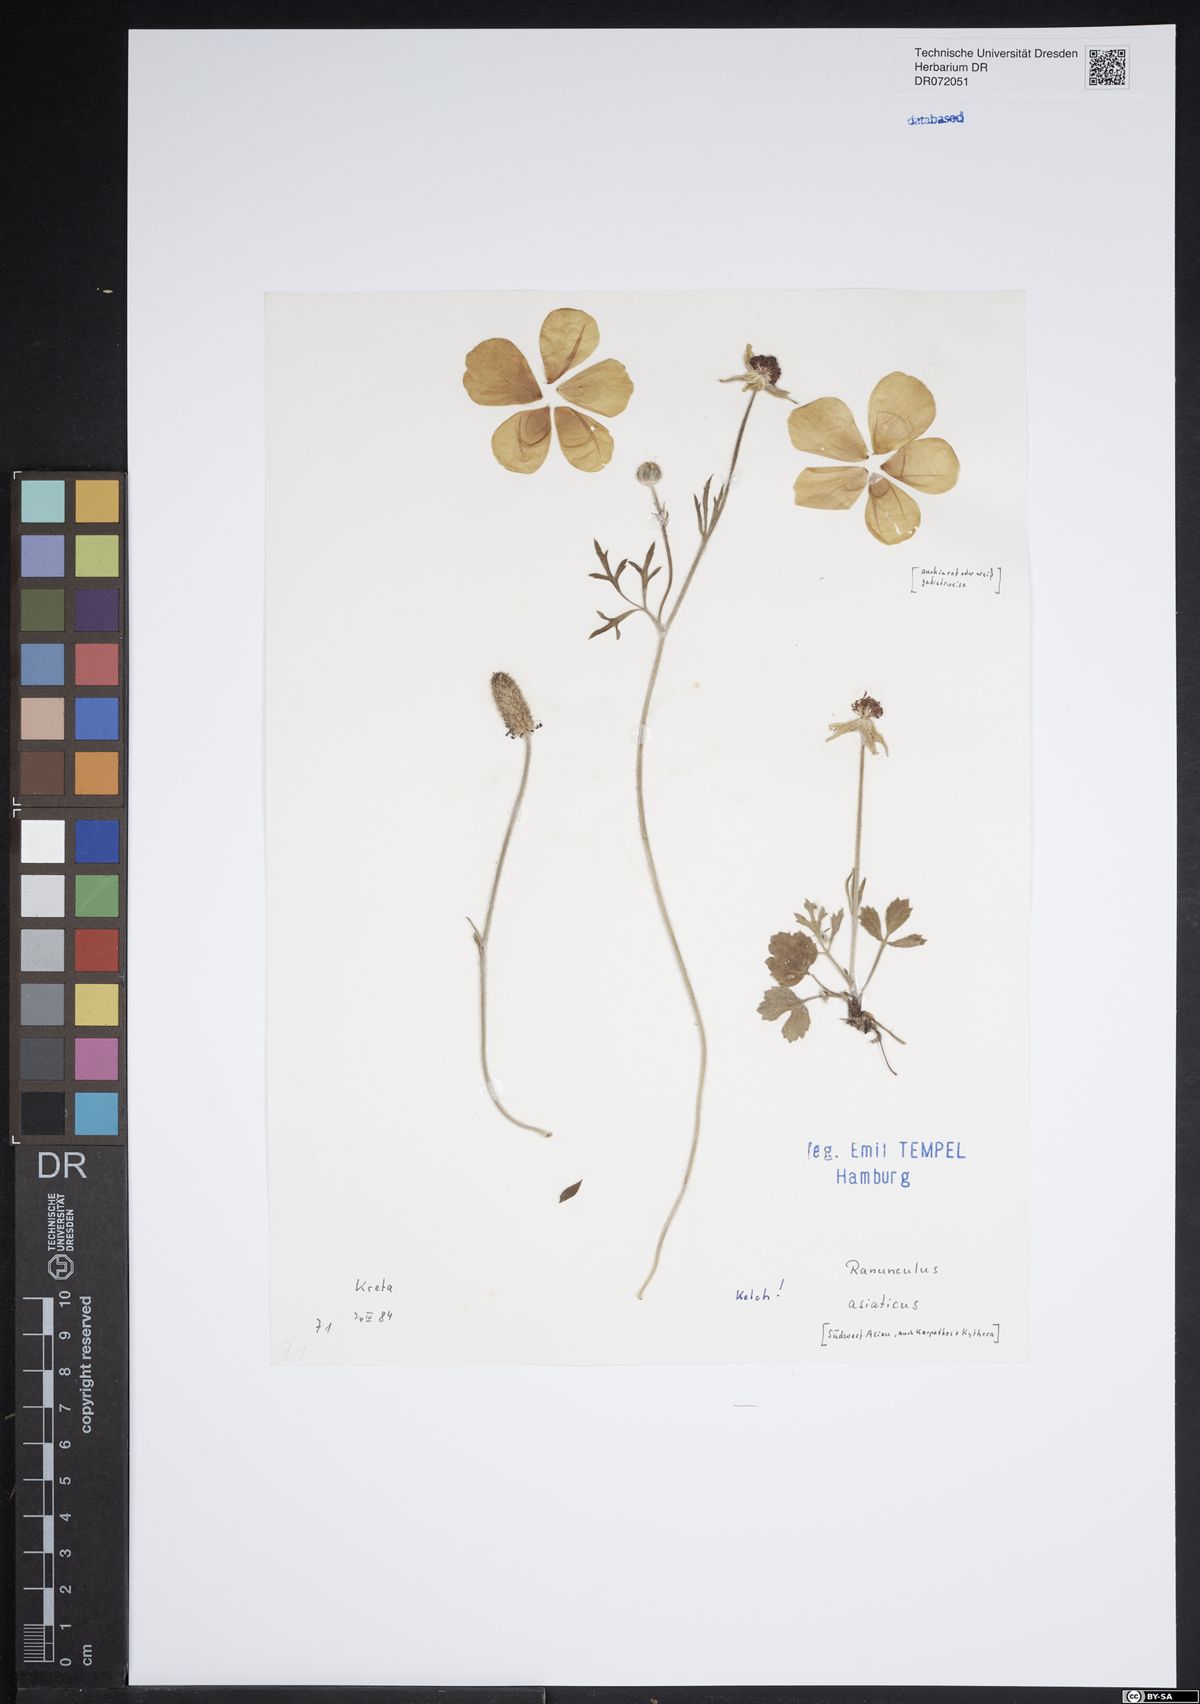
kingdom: Plantae
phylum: Tracheophyta
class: Magnoliopsida
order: Ranunculales
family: Ranunculaceae
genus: Ranunculus
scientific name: Ranunculus asiaticus
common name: Persian buttercup
